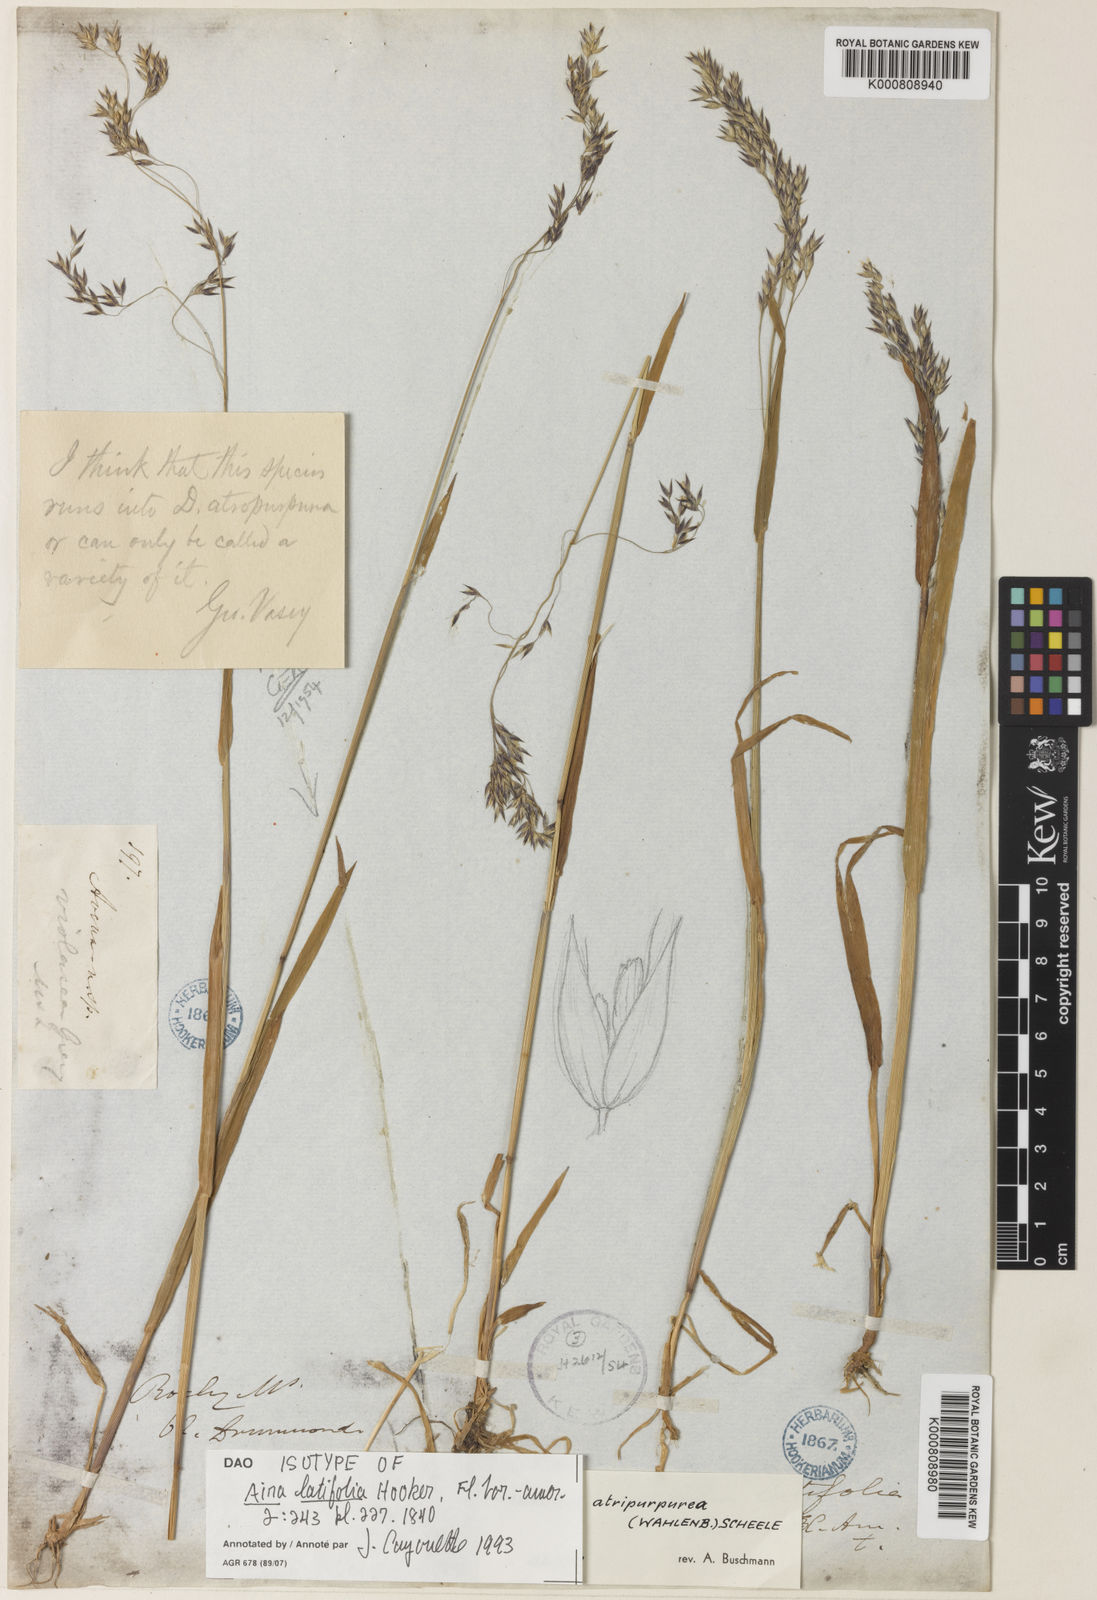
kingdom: Plantae
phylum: Tracheophyta
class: Liliopsida
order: Poales
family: Poaceae
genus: Vahlodea
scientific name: Vahlodea atropurpurea
